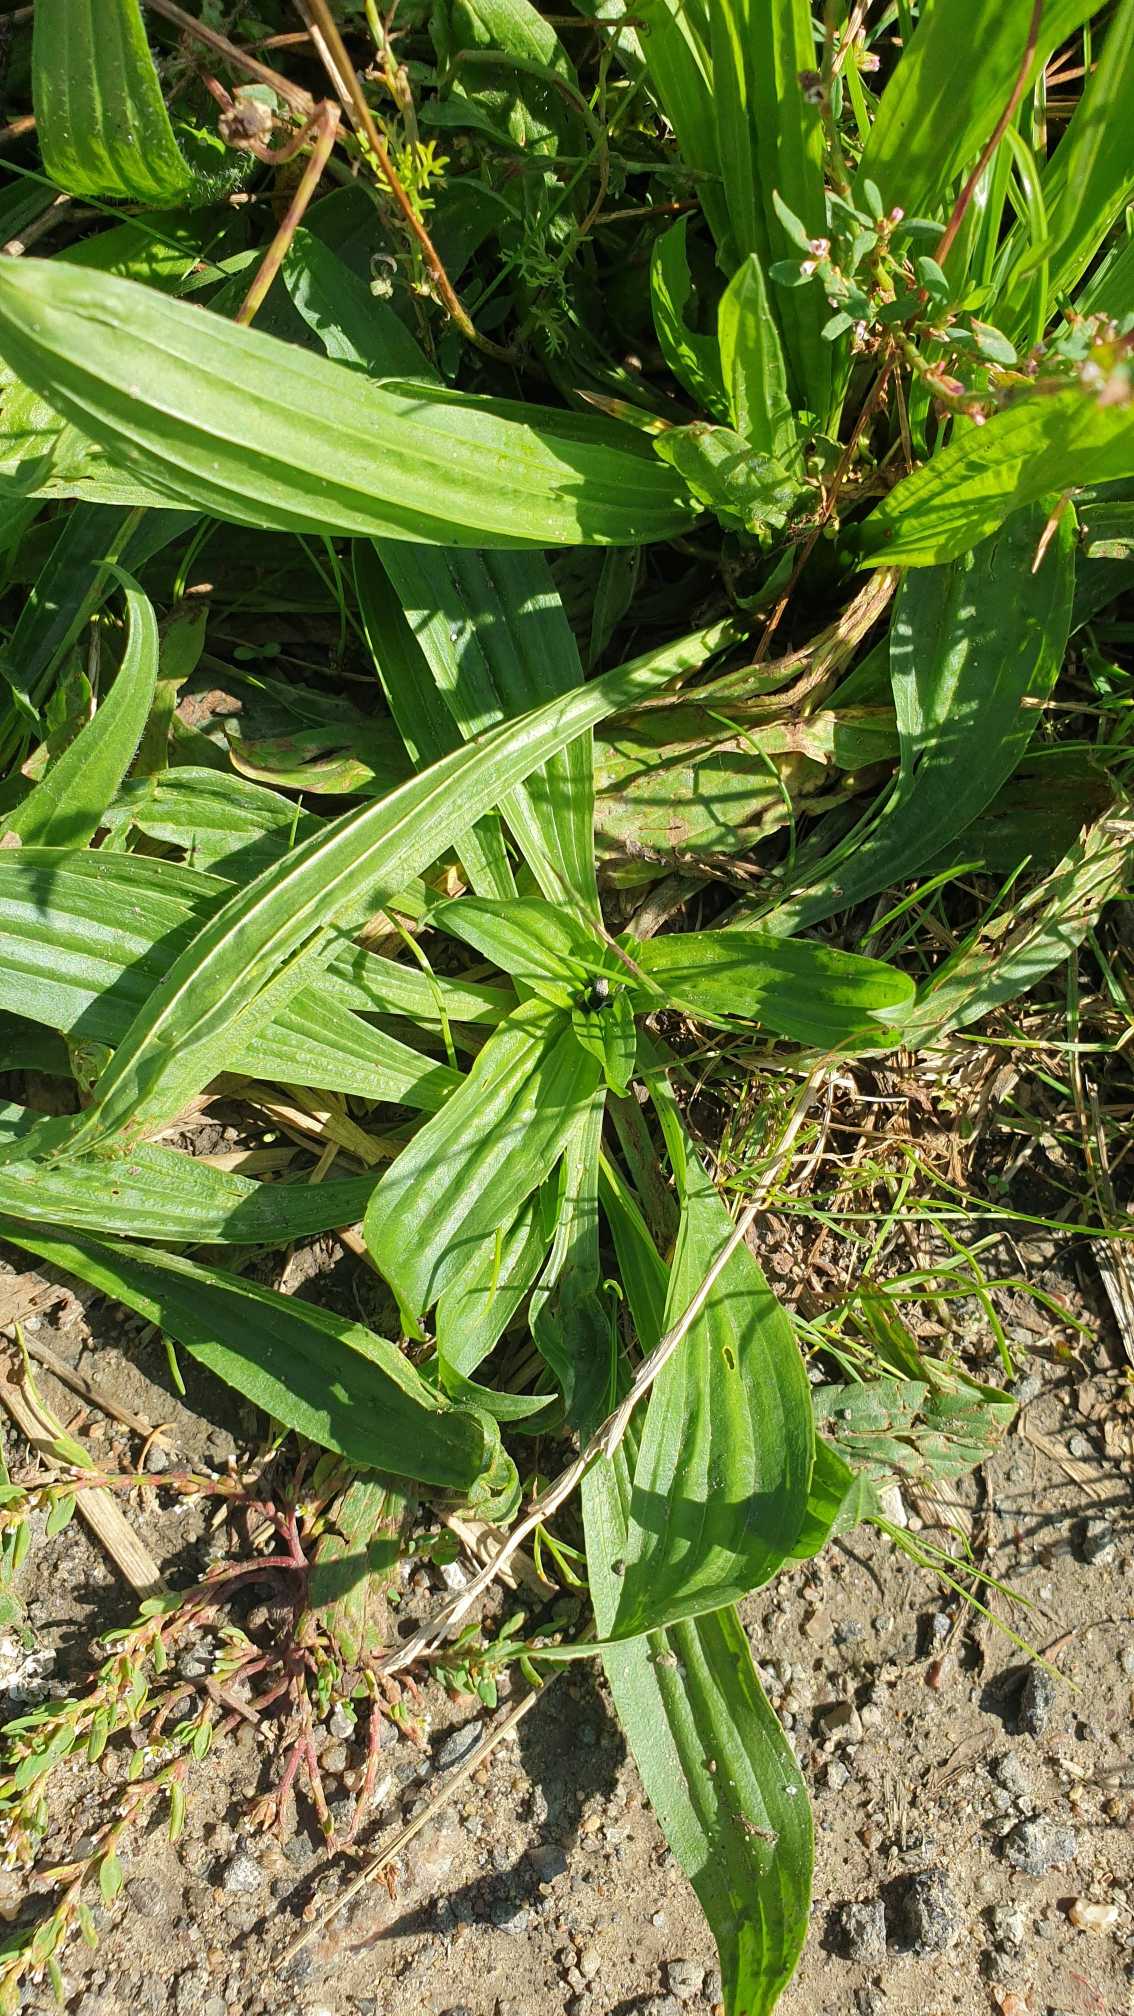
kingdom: Plantae
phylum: Tracheophyta
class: Magnoliopsida
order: Lamiales
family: Plantaginaceae
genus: Plantago
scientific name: Plantago lanceolata
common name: Lancet-vejbred
